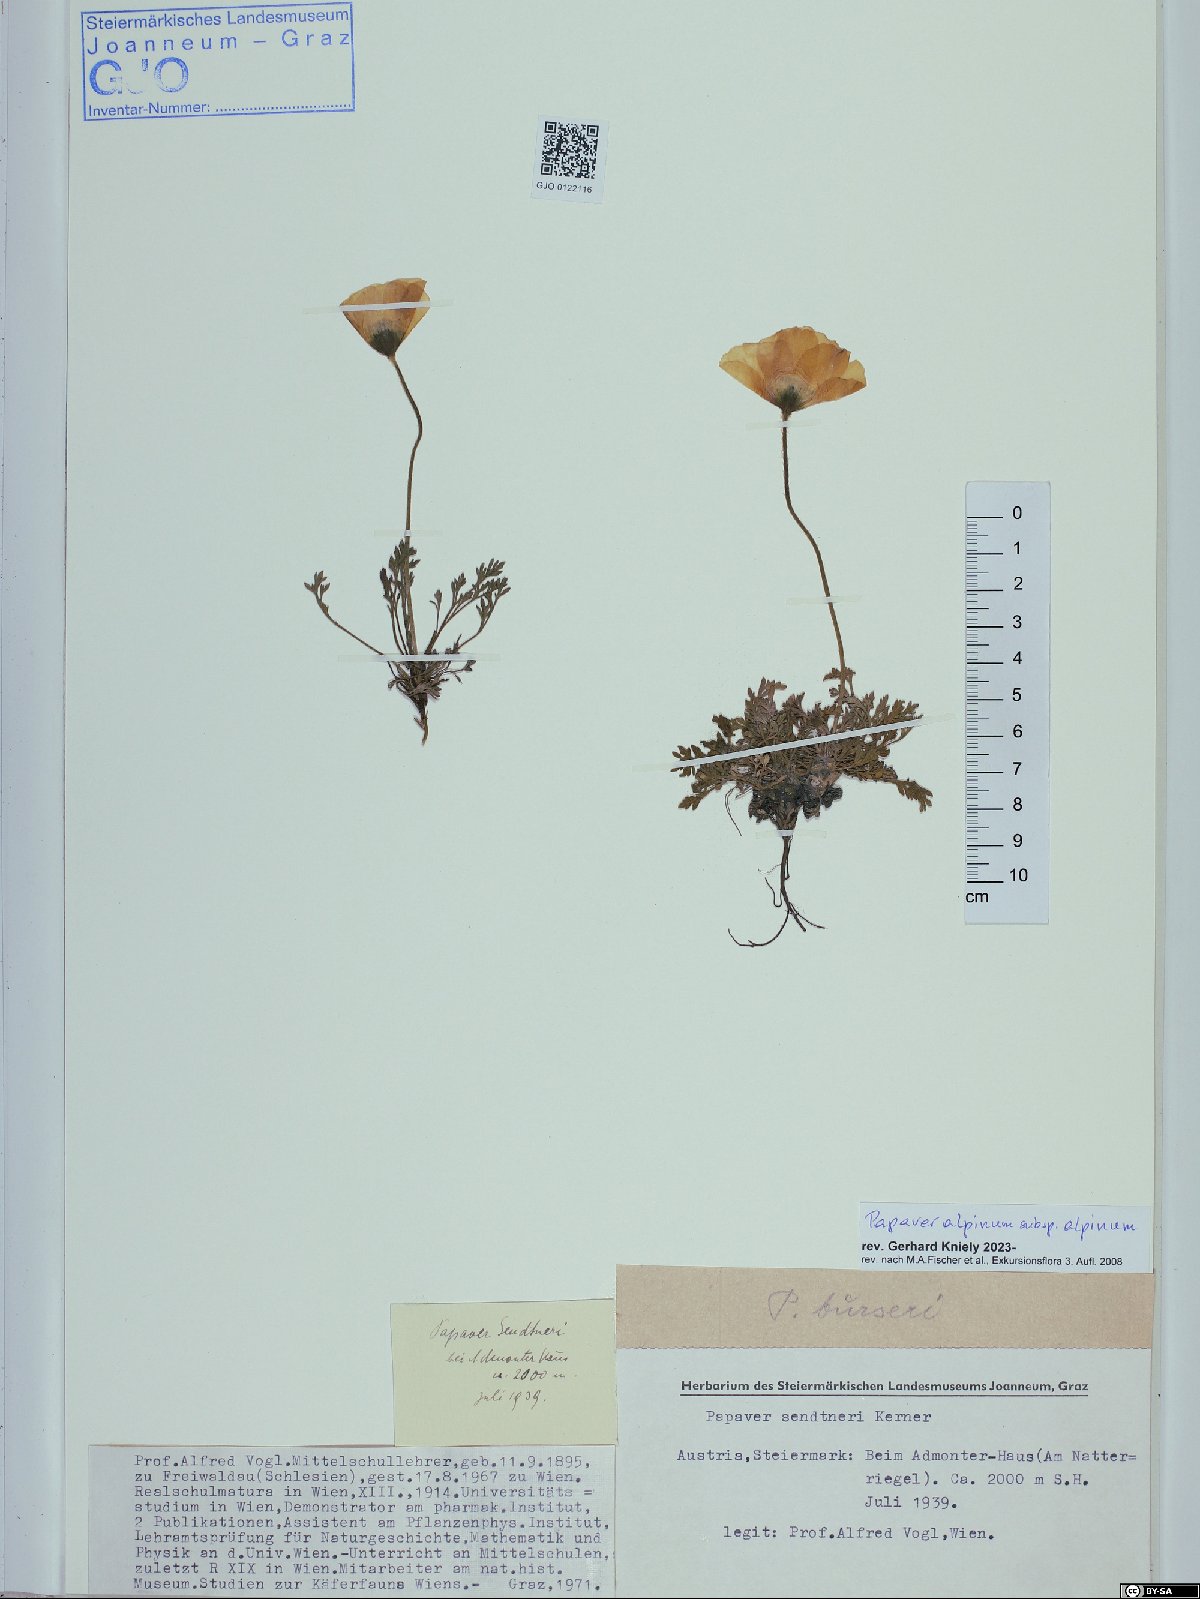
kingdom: Plantae
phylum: Tracheophyta
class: Magnoliopsida
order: Ranunculales
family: Papaveraceae
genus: Papaver
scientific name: Papaver alpinum
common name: Austrian poppy
